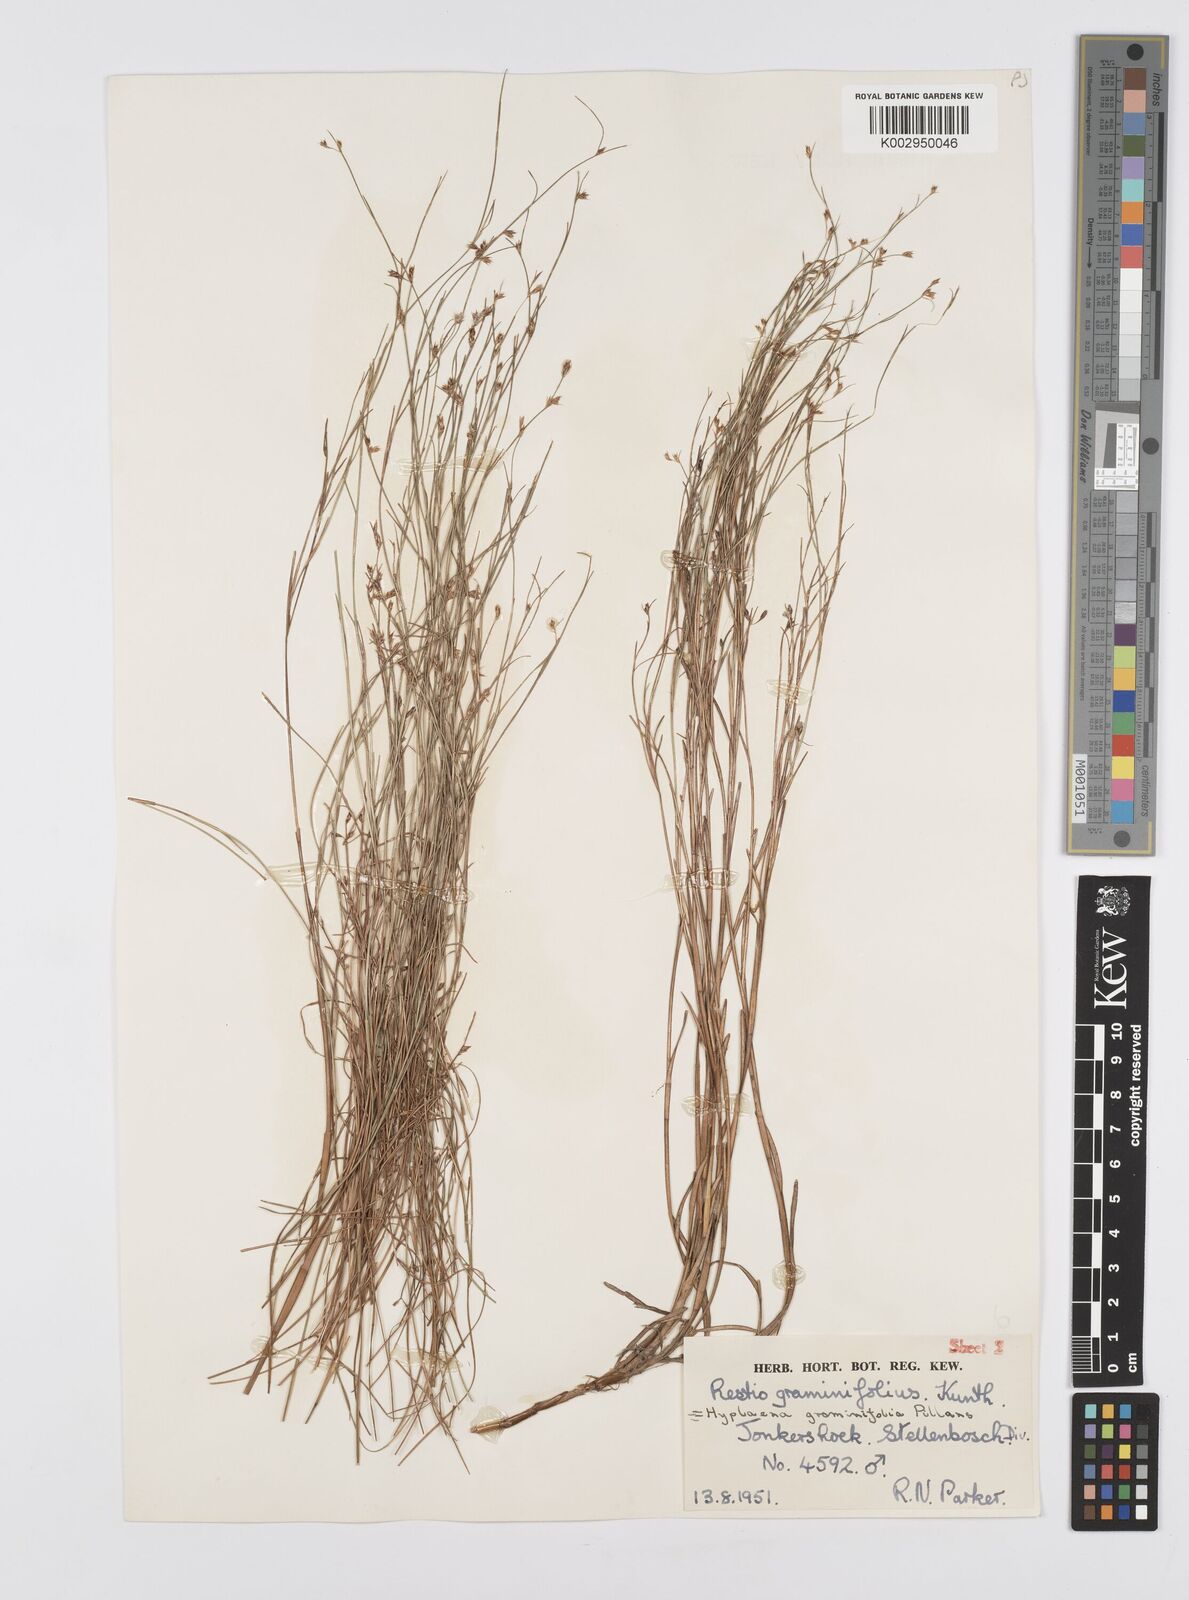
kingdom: Plantae
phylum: Tracheophyta
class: Liliopsida
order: Poales
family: Restionaceae
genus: Anthochortus
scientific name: Anthochortus graminifolius
